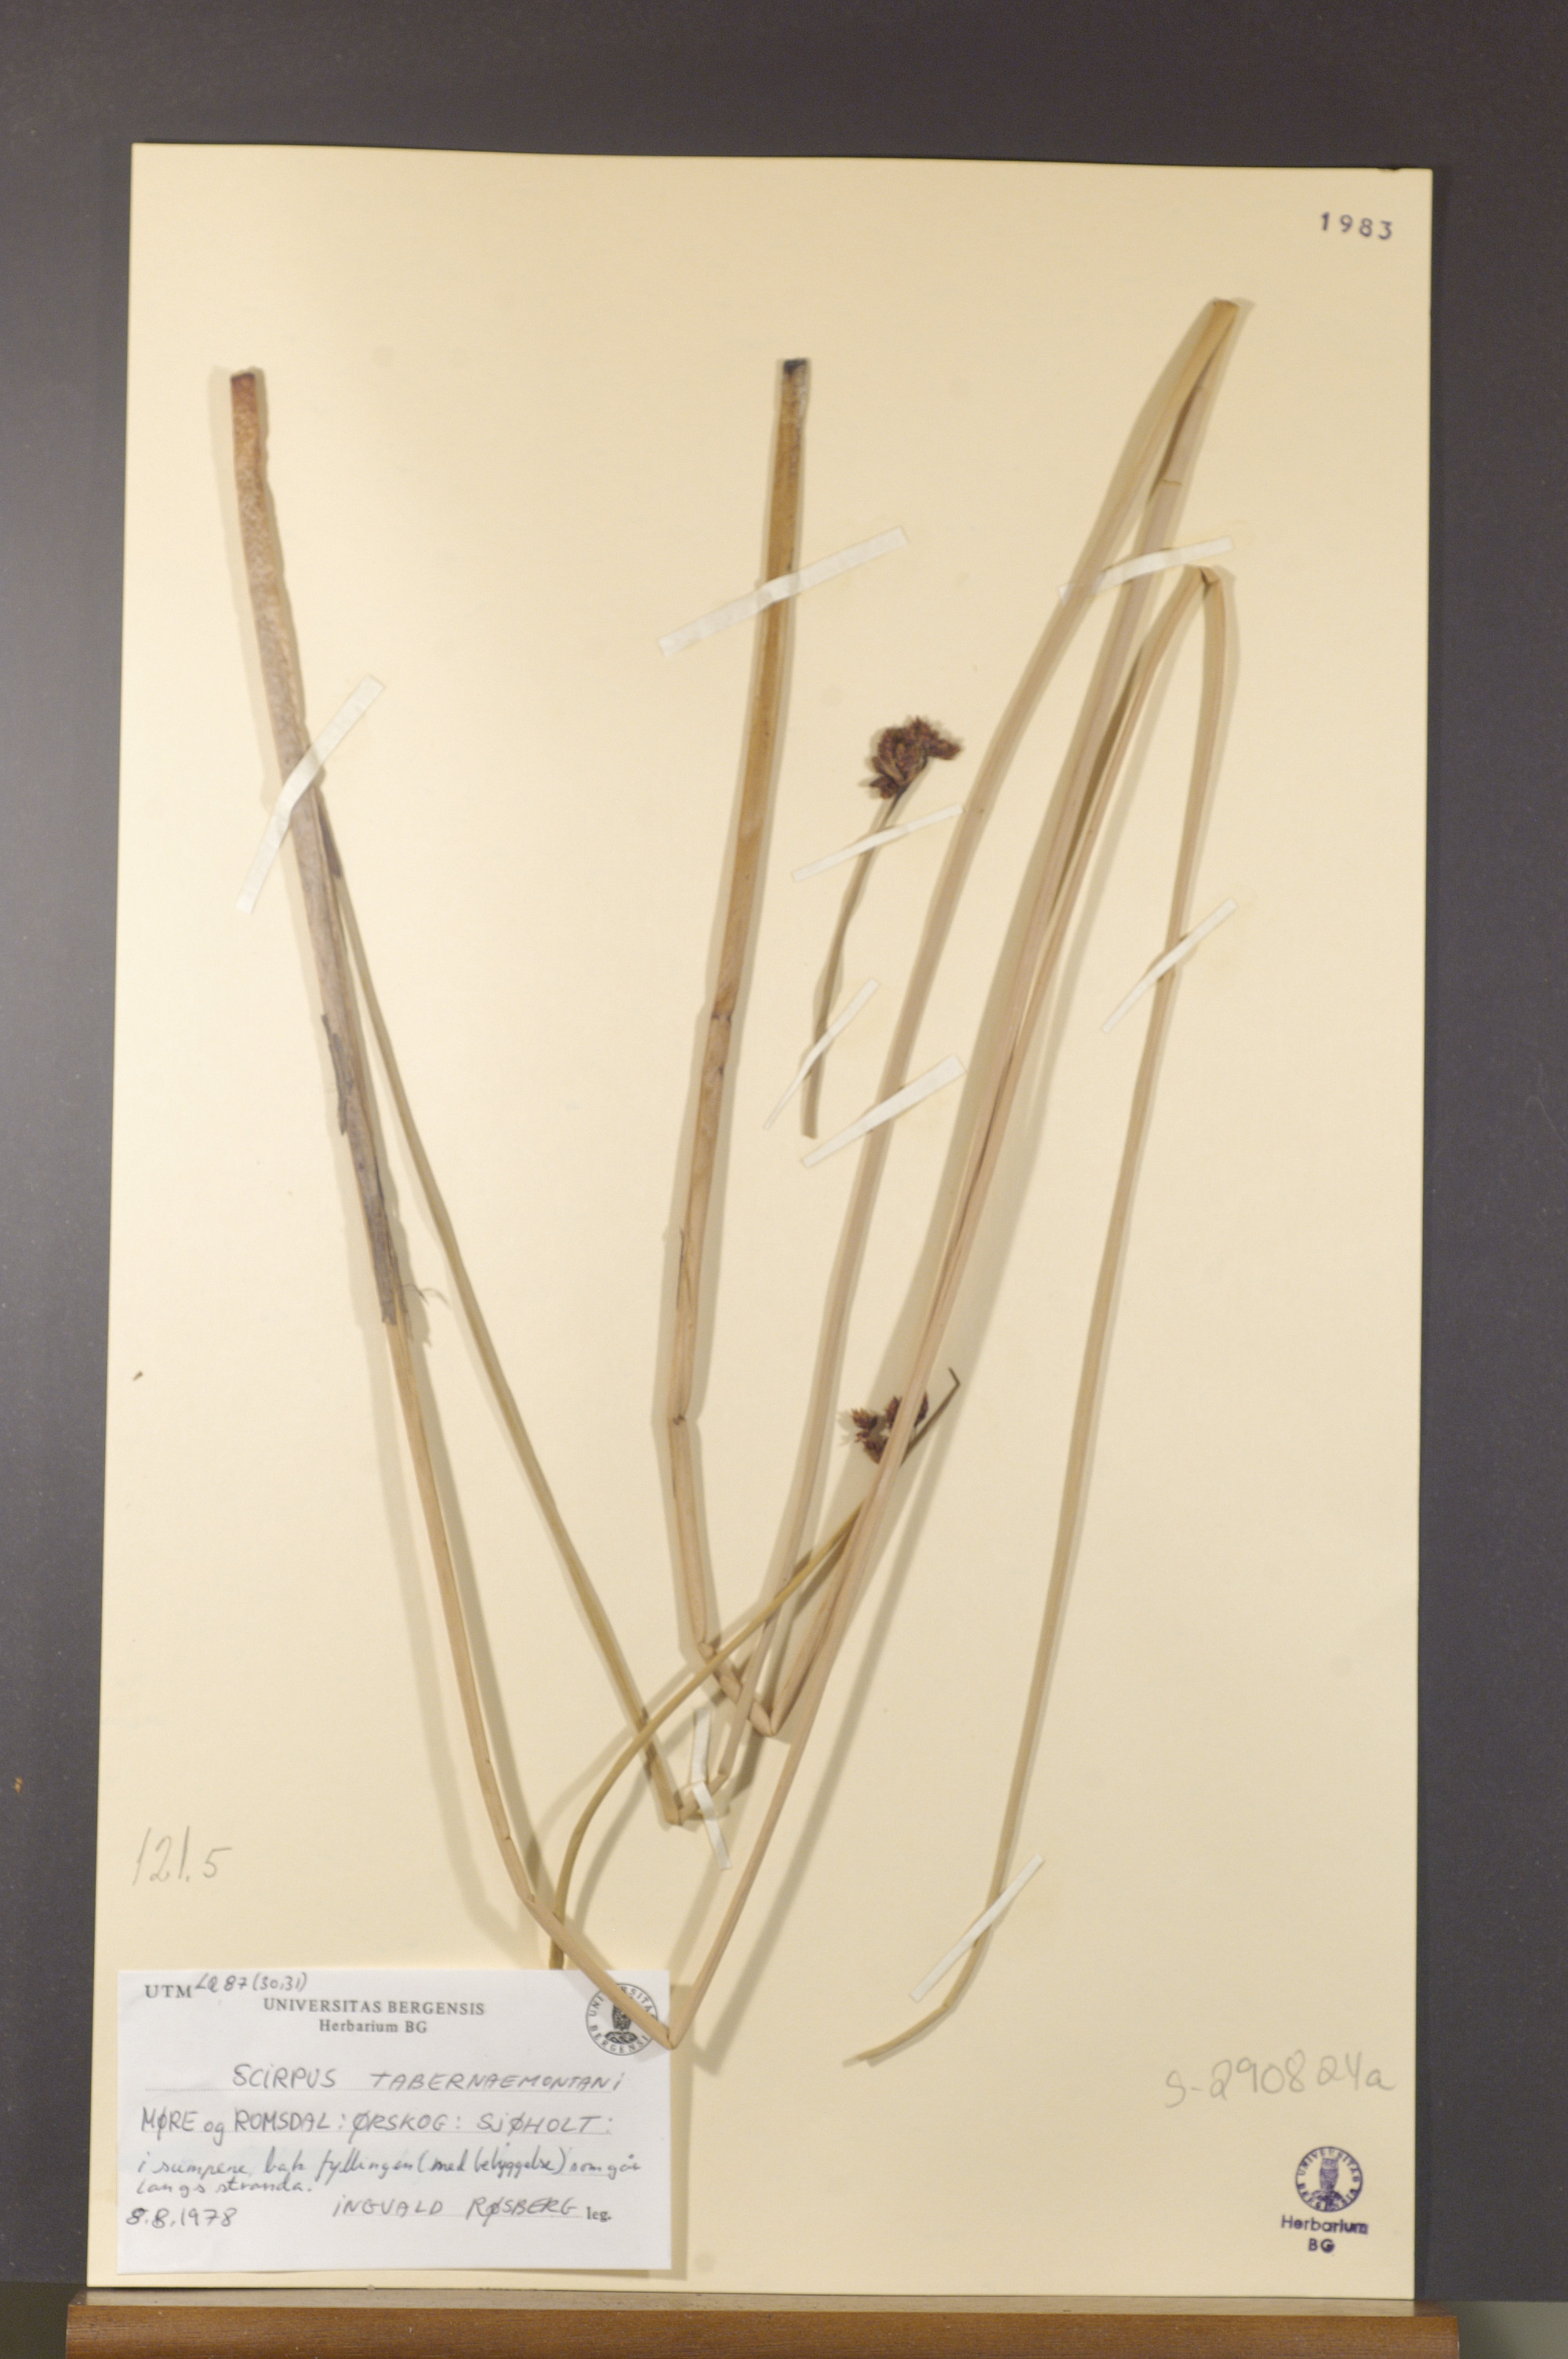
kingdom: Plantae
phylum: Tracheophyta
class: Liliopsida
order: Poales
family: Cyperaceae
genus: Schoenoplectus
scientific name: Schoenoplectus tabernaemontani
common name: Grey club-rush
